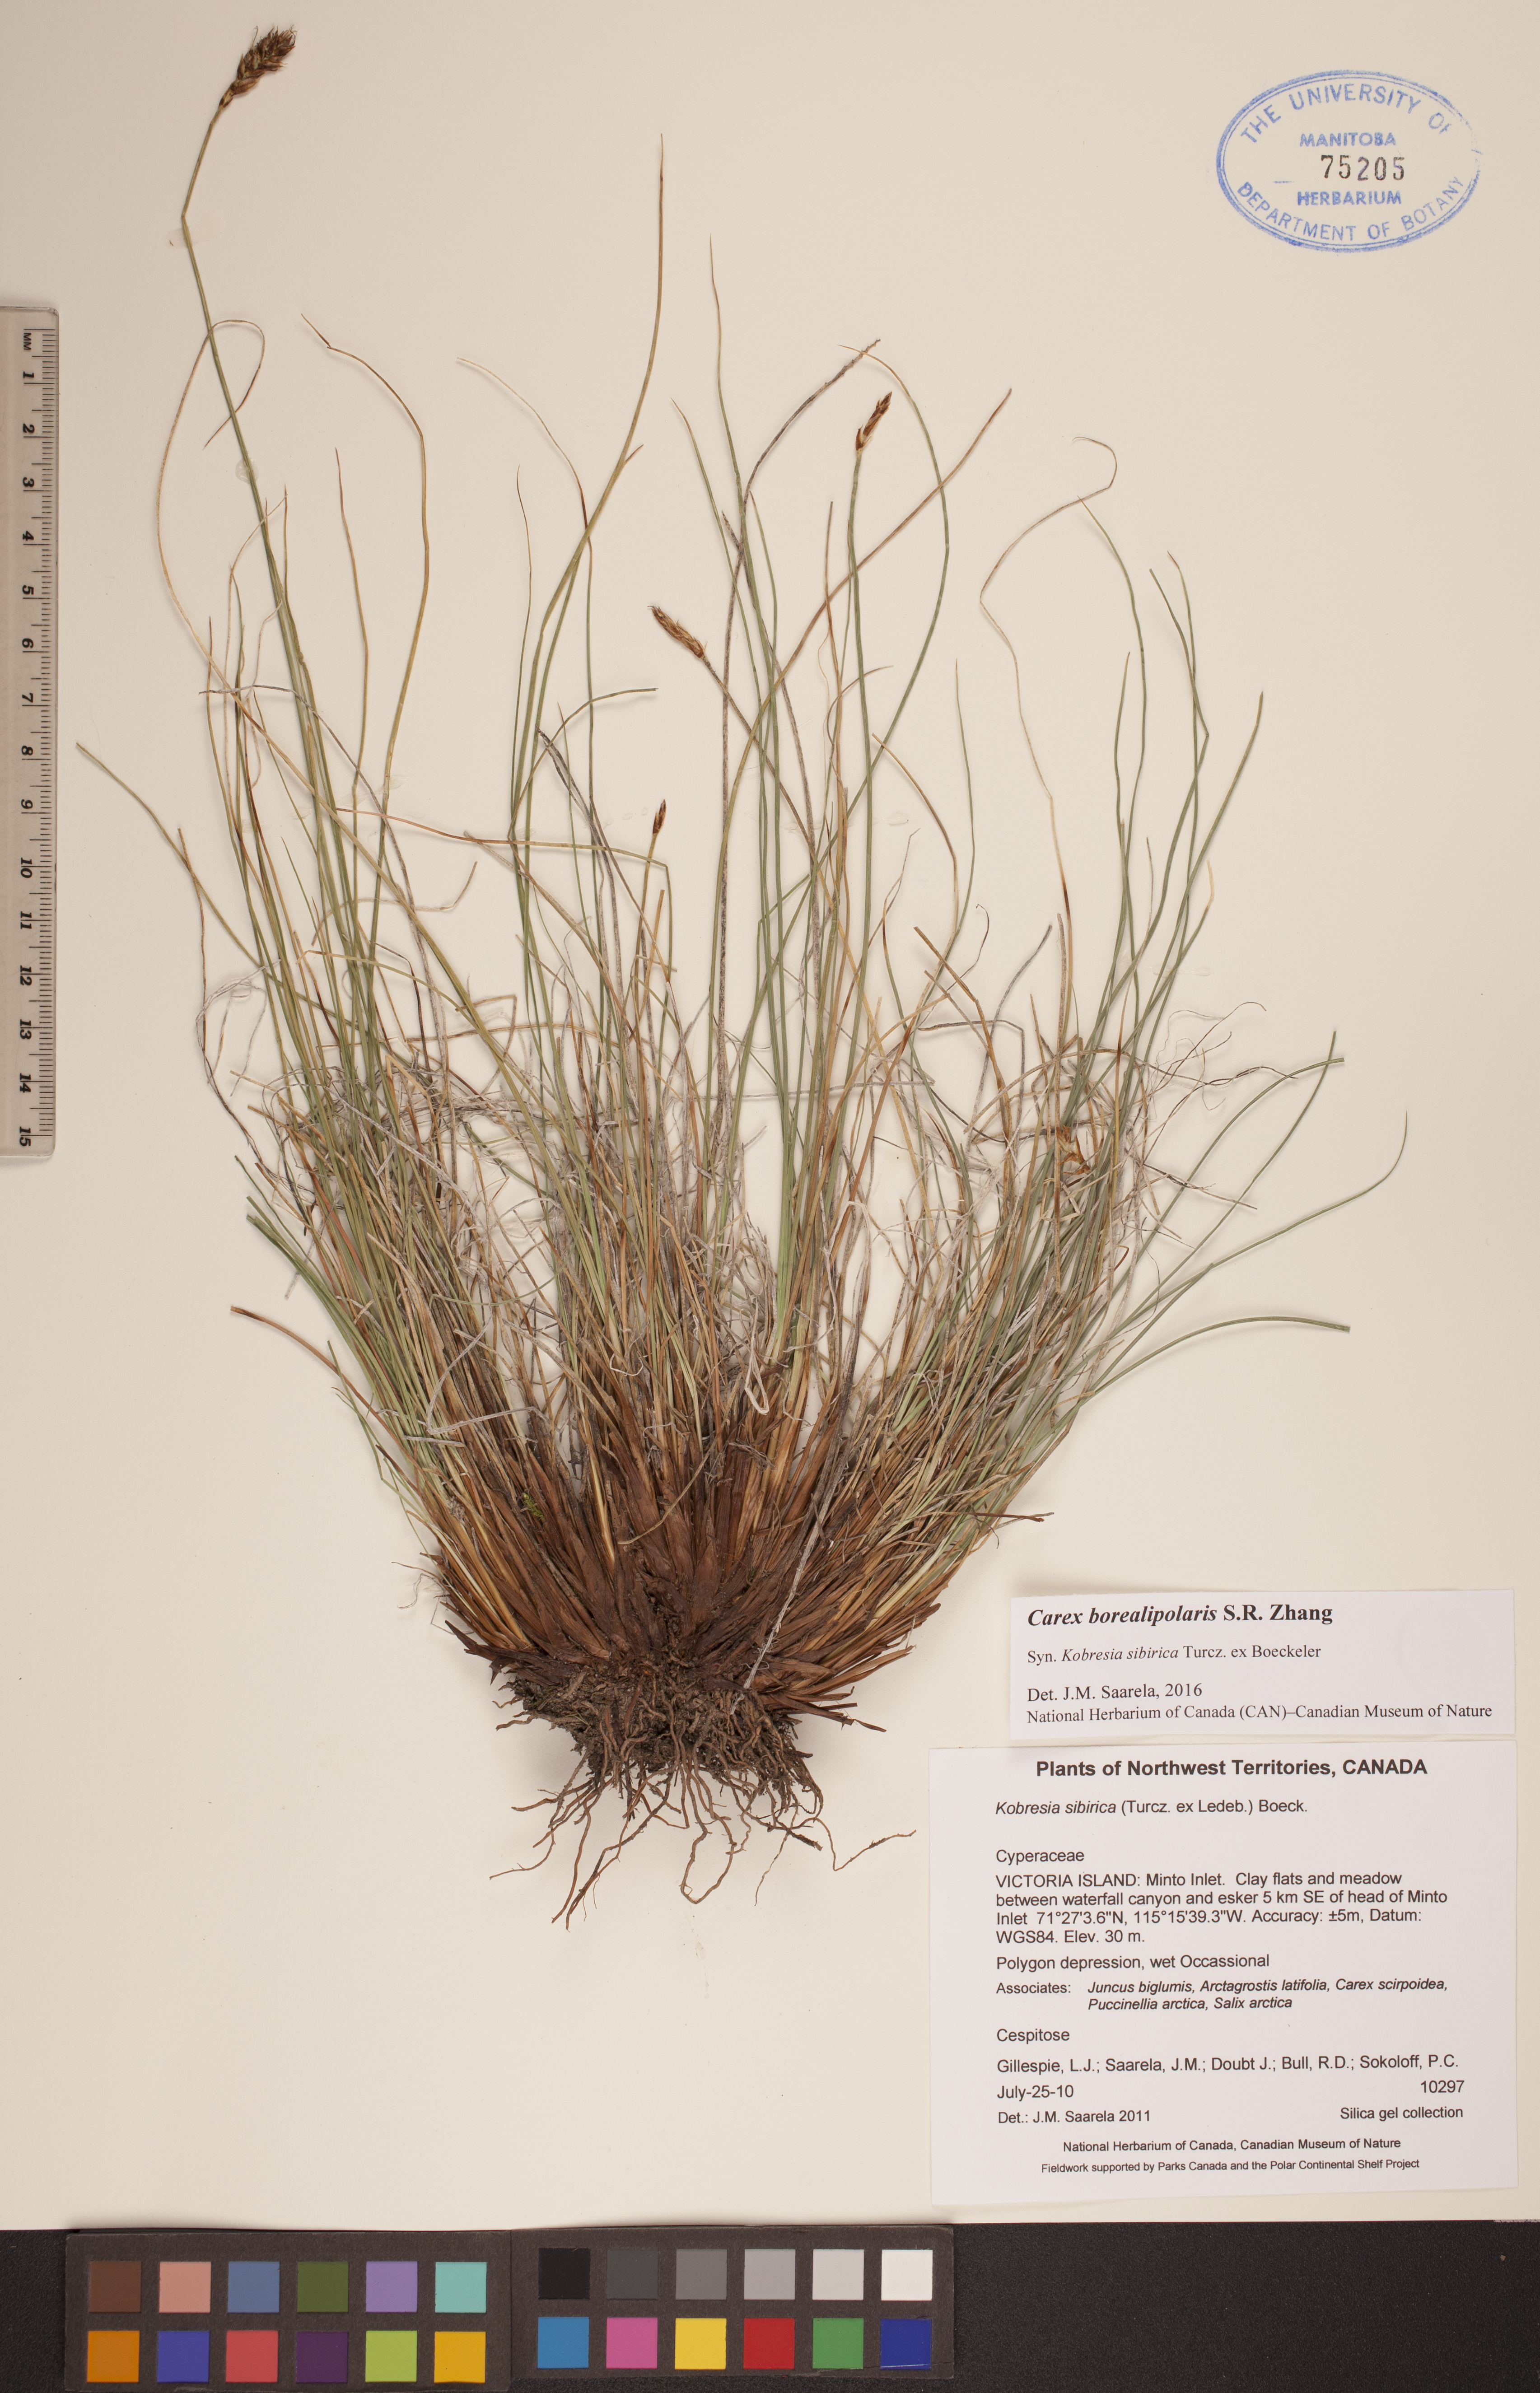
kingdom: Plantae
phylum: Tracheophyta
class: Liliopsida
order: Poales
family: Cyperaceae
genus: Carex
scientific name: Carex borealipolaris
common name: Siberian bog sedge
